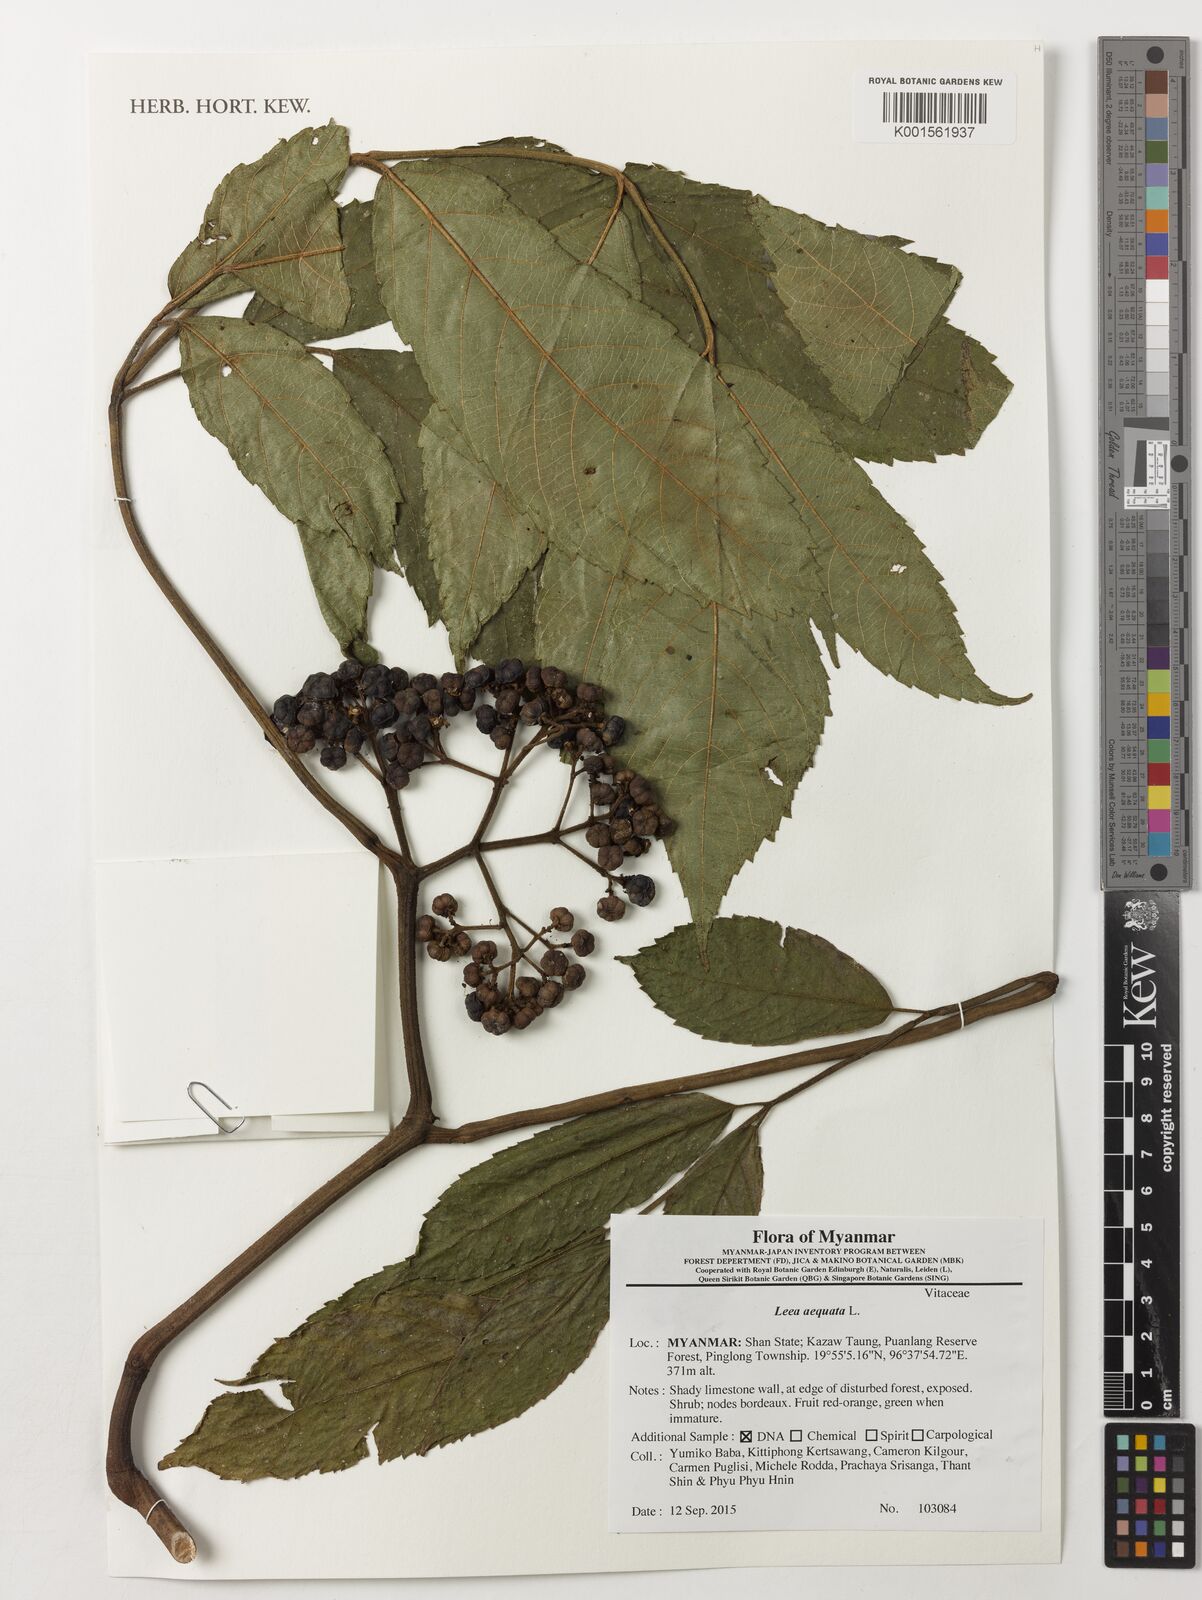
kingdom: Plantae
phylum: Tracheophyta
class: Magnoliopsida
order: Vitales
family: Vitaceae
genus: Leea
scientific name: Leea aequata
